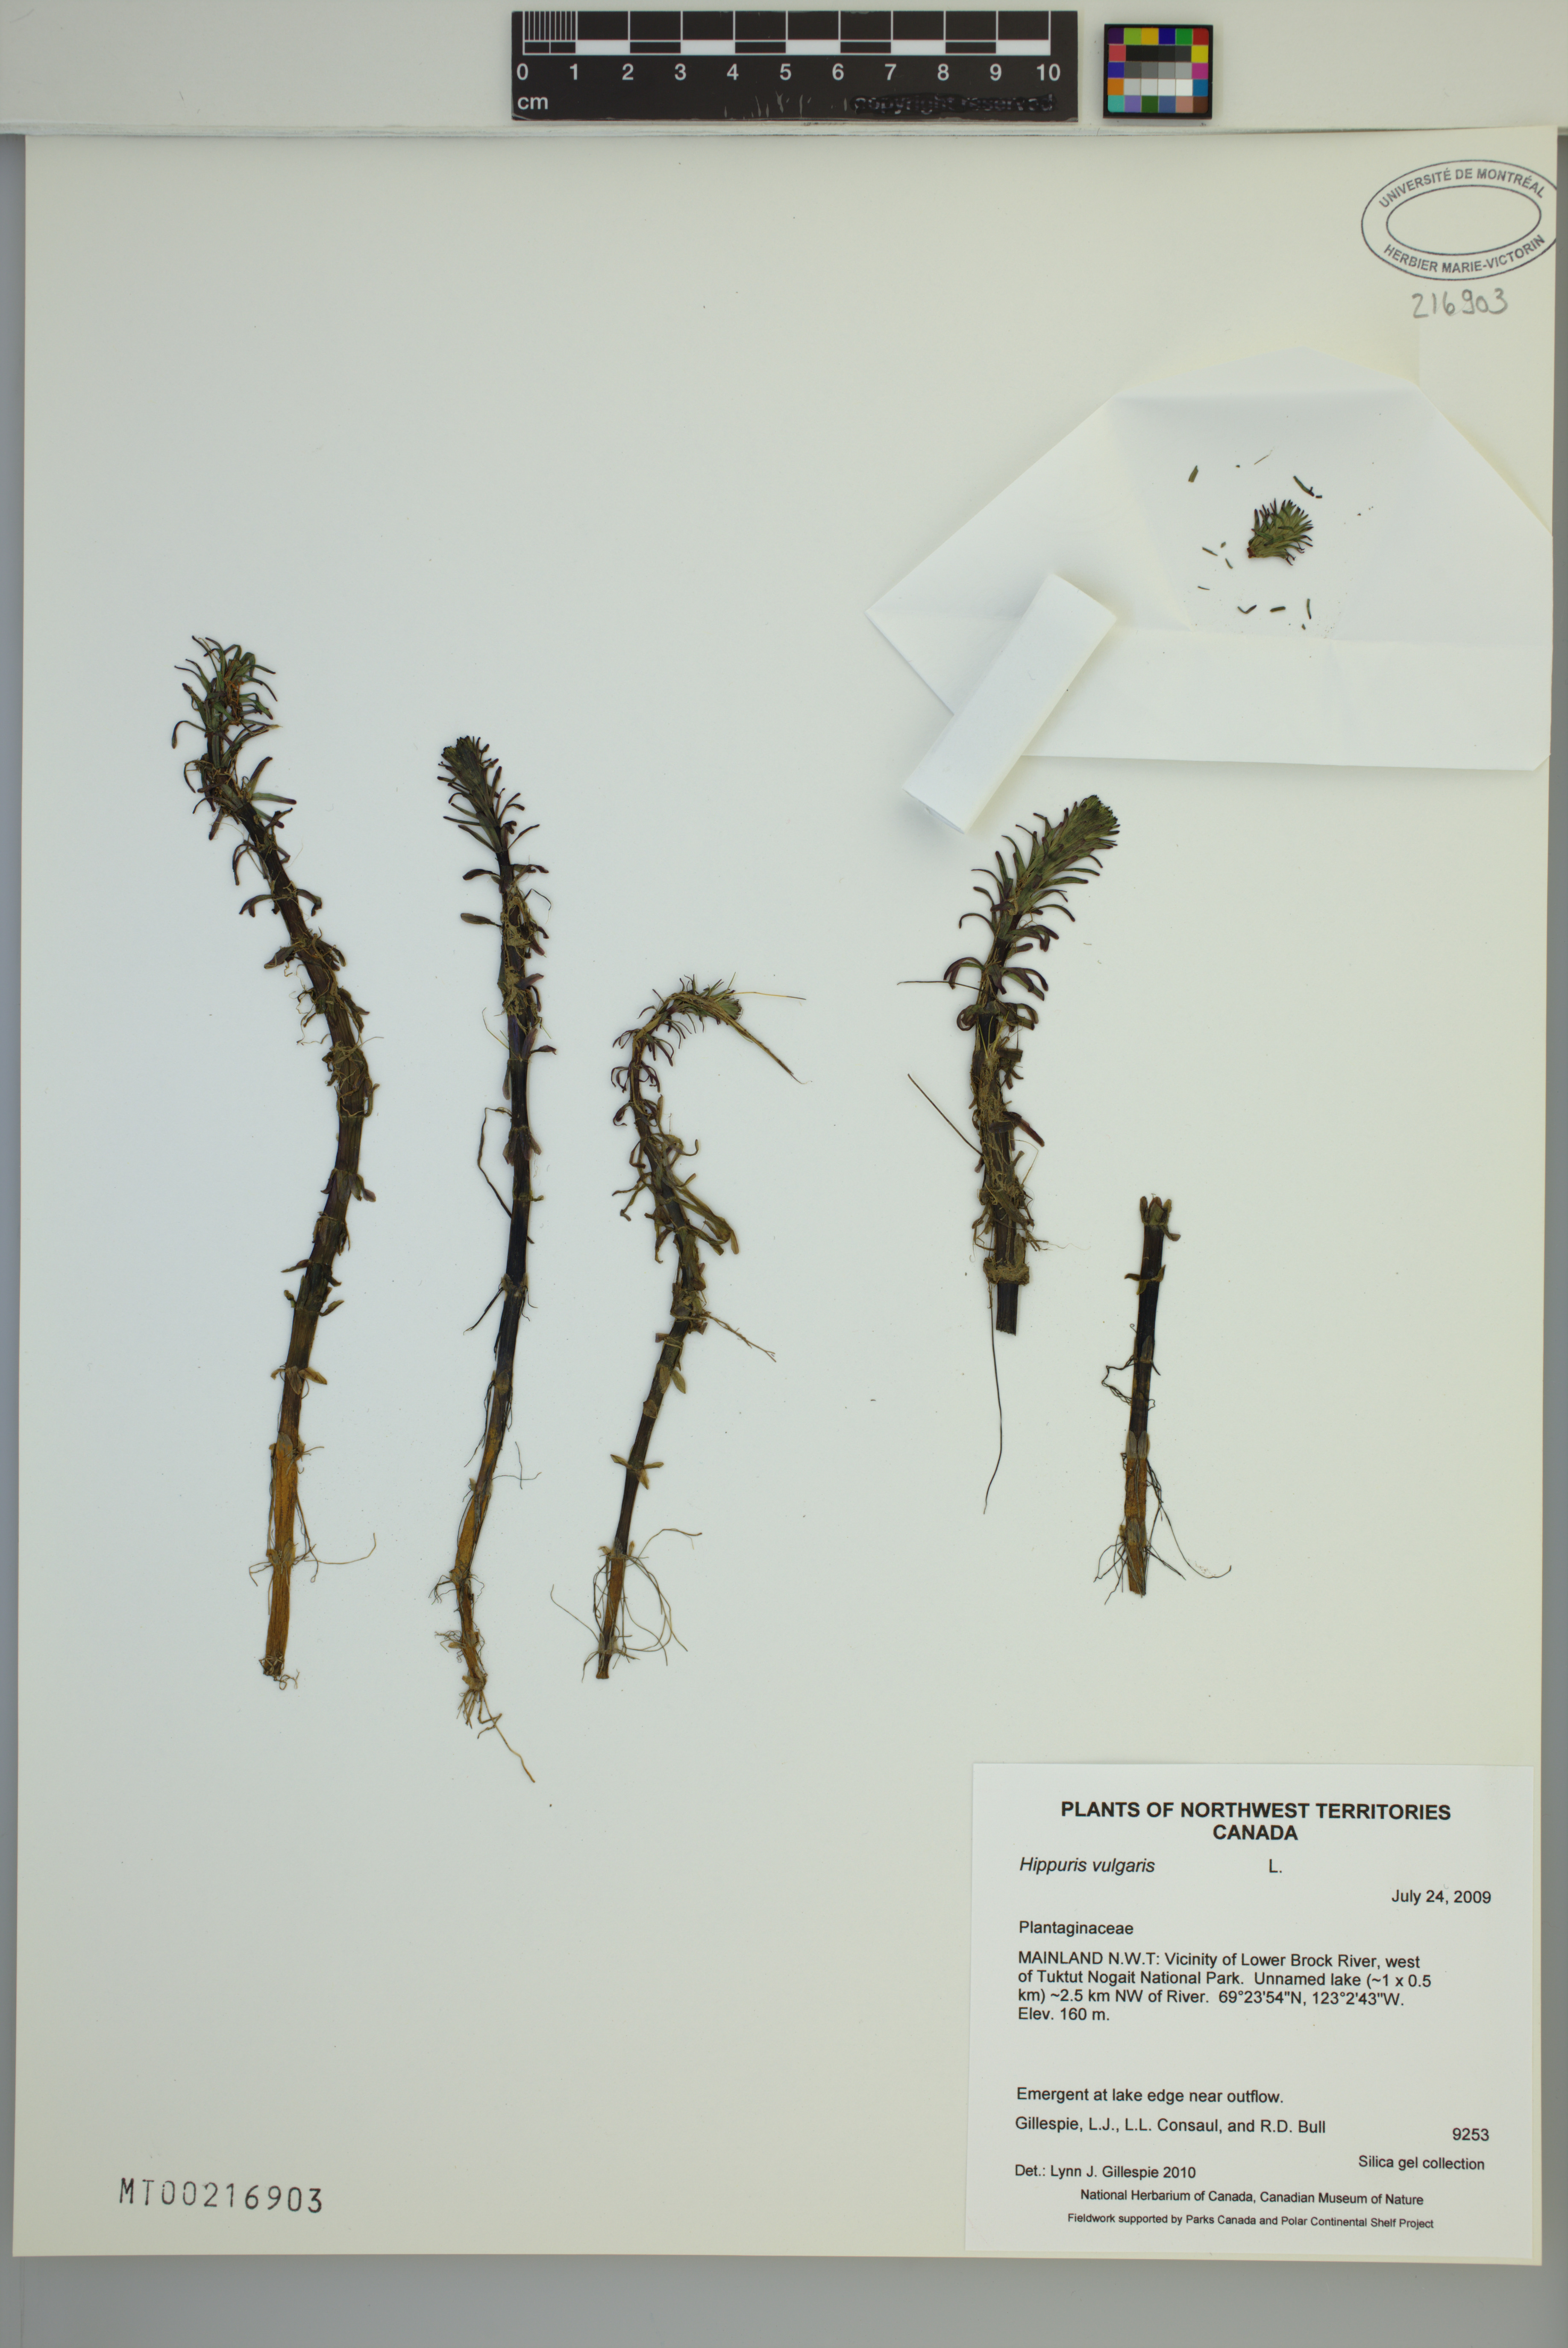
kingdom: Plantae
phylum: Tracheophyta
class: Magnoliopsida
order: Lamiales
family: Plantaginaceae
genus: Hippuris
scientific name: Hippuris vulgaris
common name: Mare's-tail
